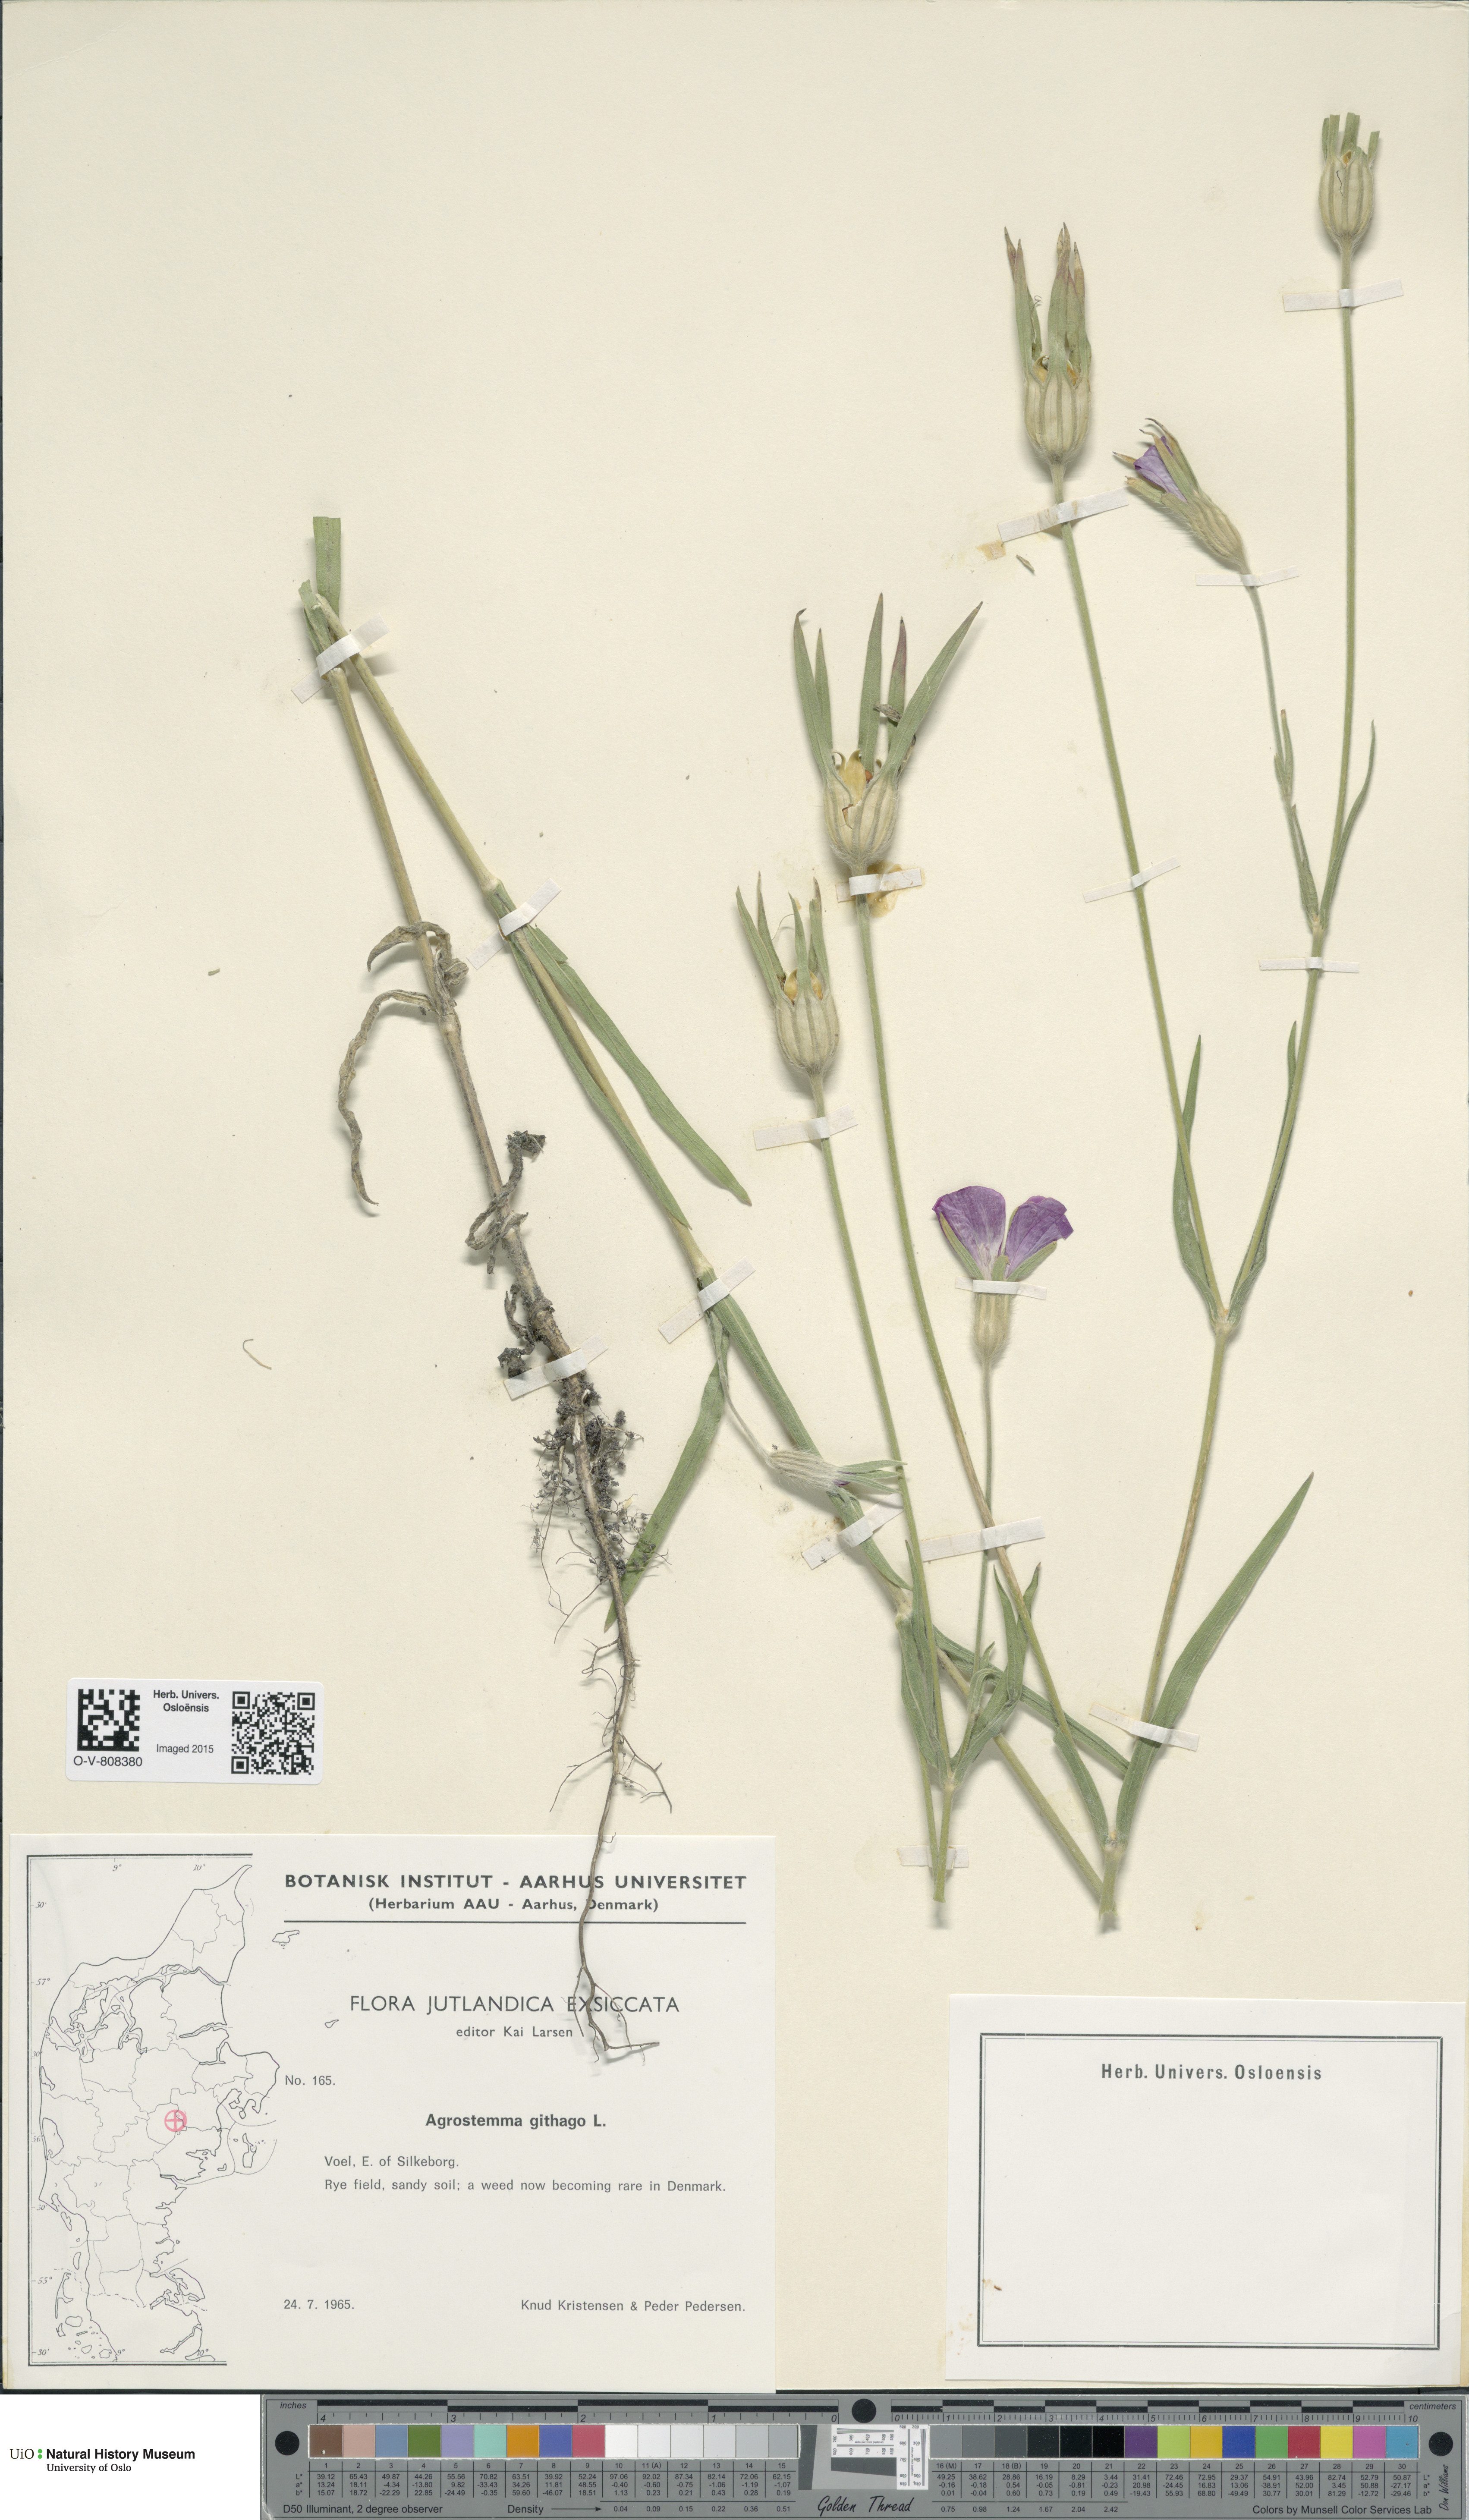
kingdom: Plantae
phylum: Tracheophyta
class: Magnoliopsida
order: Caryophyllales
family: Caryophyllaceae
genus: Agrostemma
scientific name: Agrostemma githago
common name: Common corncockle
